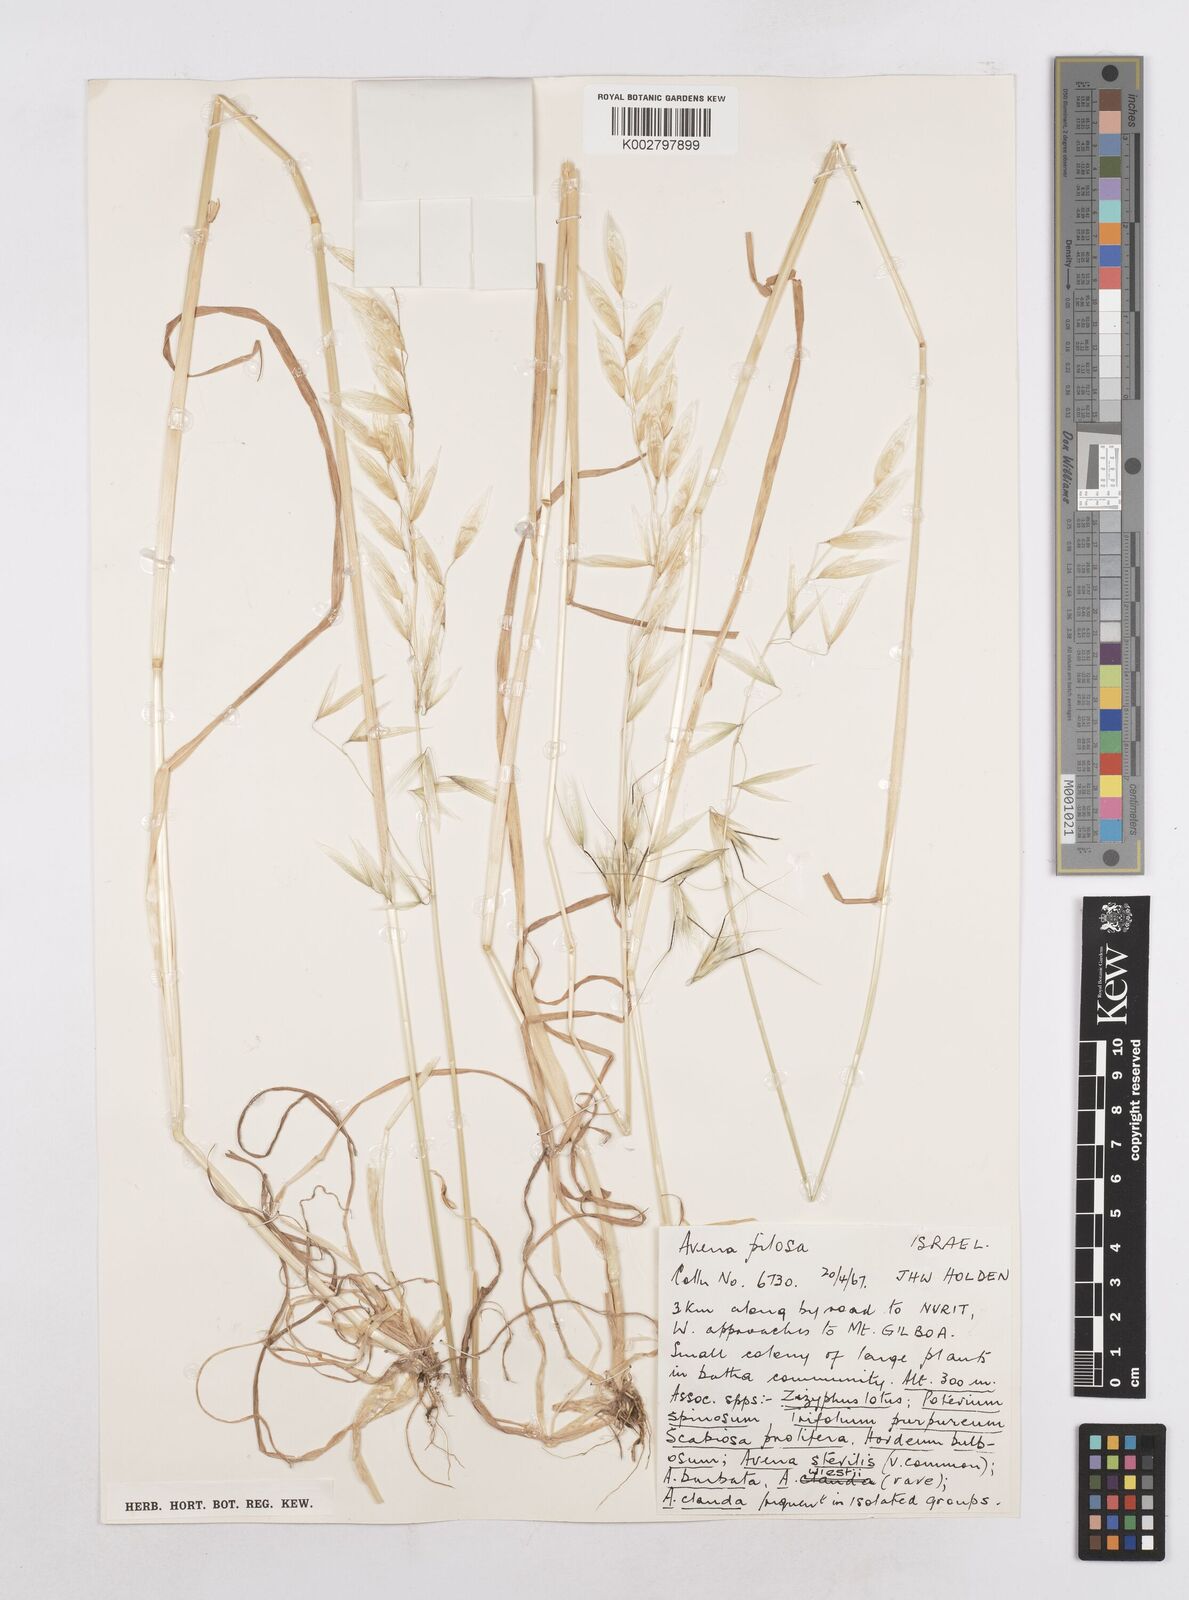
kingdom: Plantae
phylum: Tracheophyta
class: Liliopsida
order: Poales
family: Poaceae
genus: Avena
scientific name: Avena
